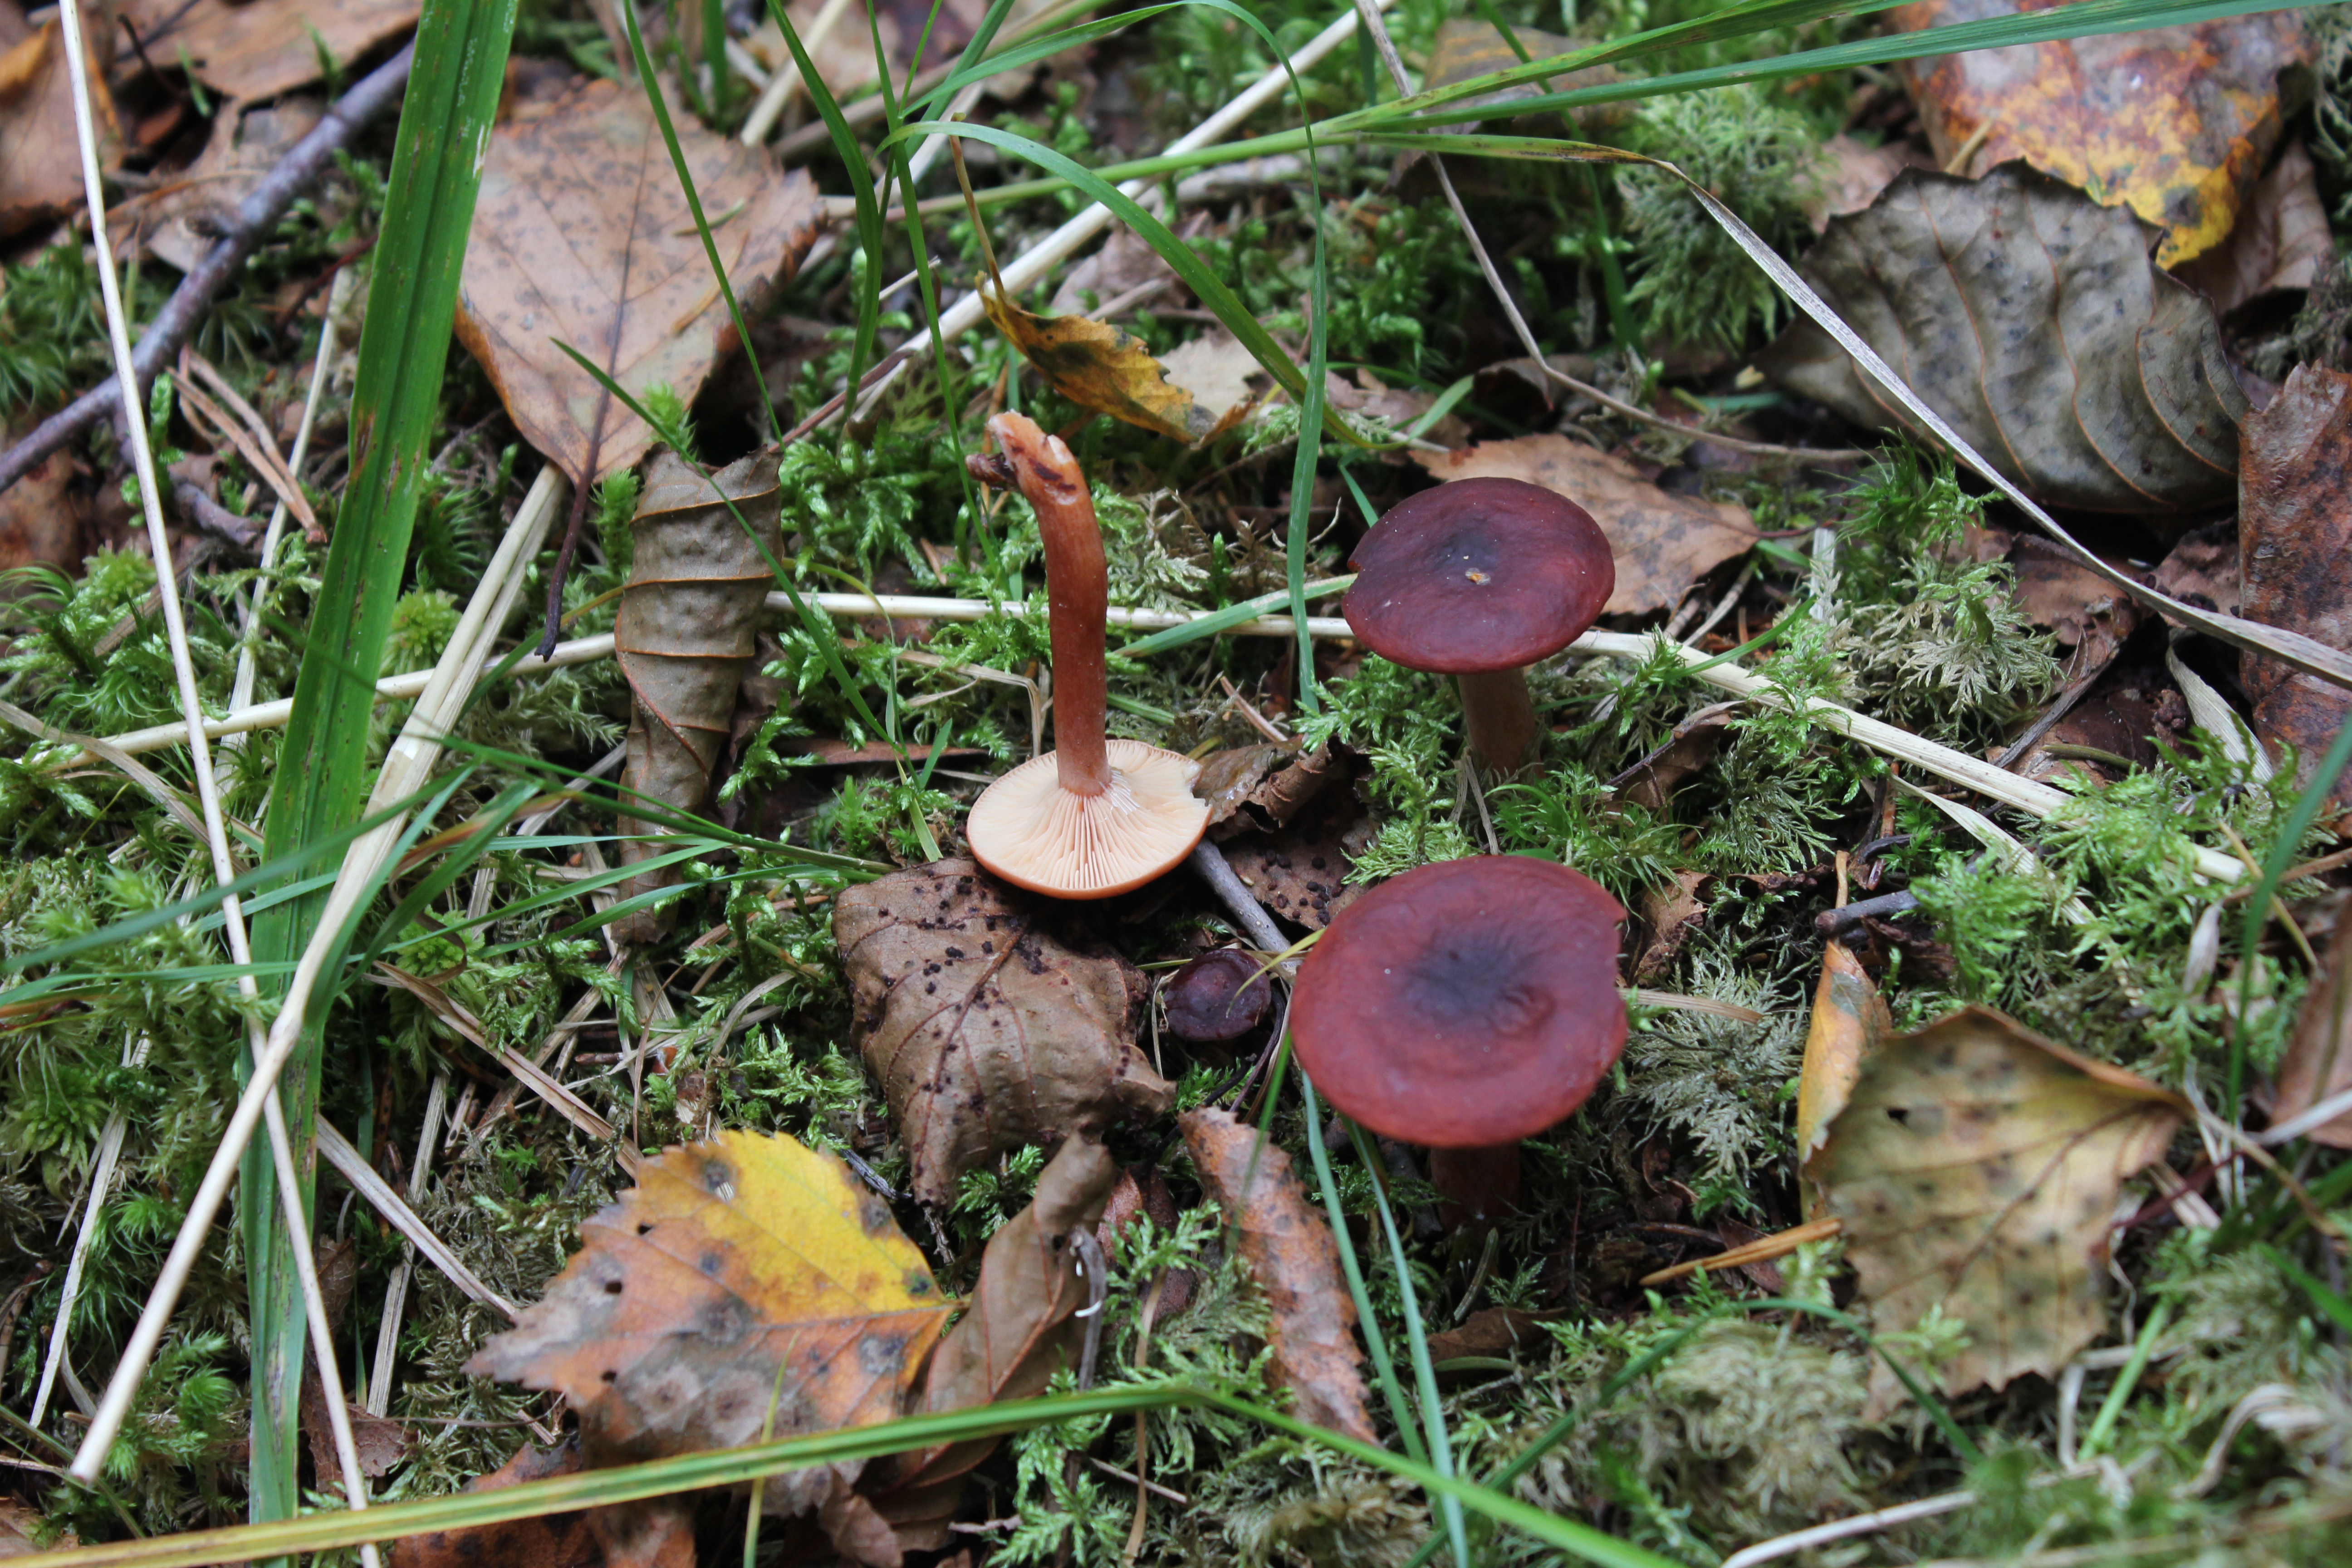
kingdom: Fungi
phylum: Basidiomycota
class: Agaricomycetes
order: Russulales
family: Russulaceae
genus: Lactarius
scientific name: Lactarius badiosanguineus
